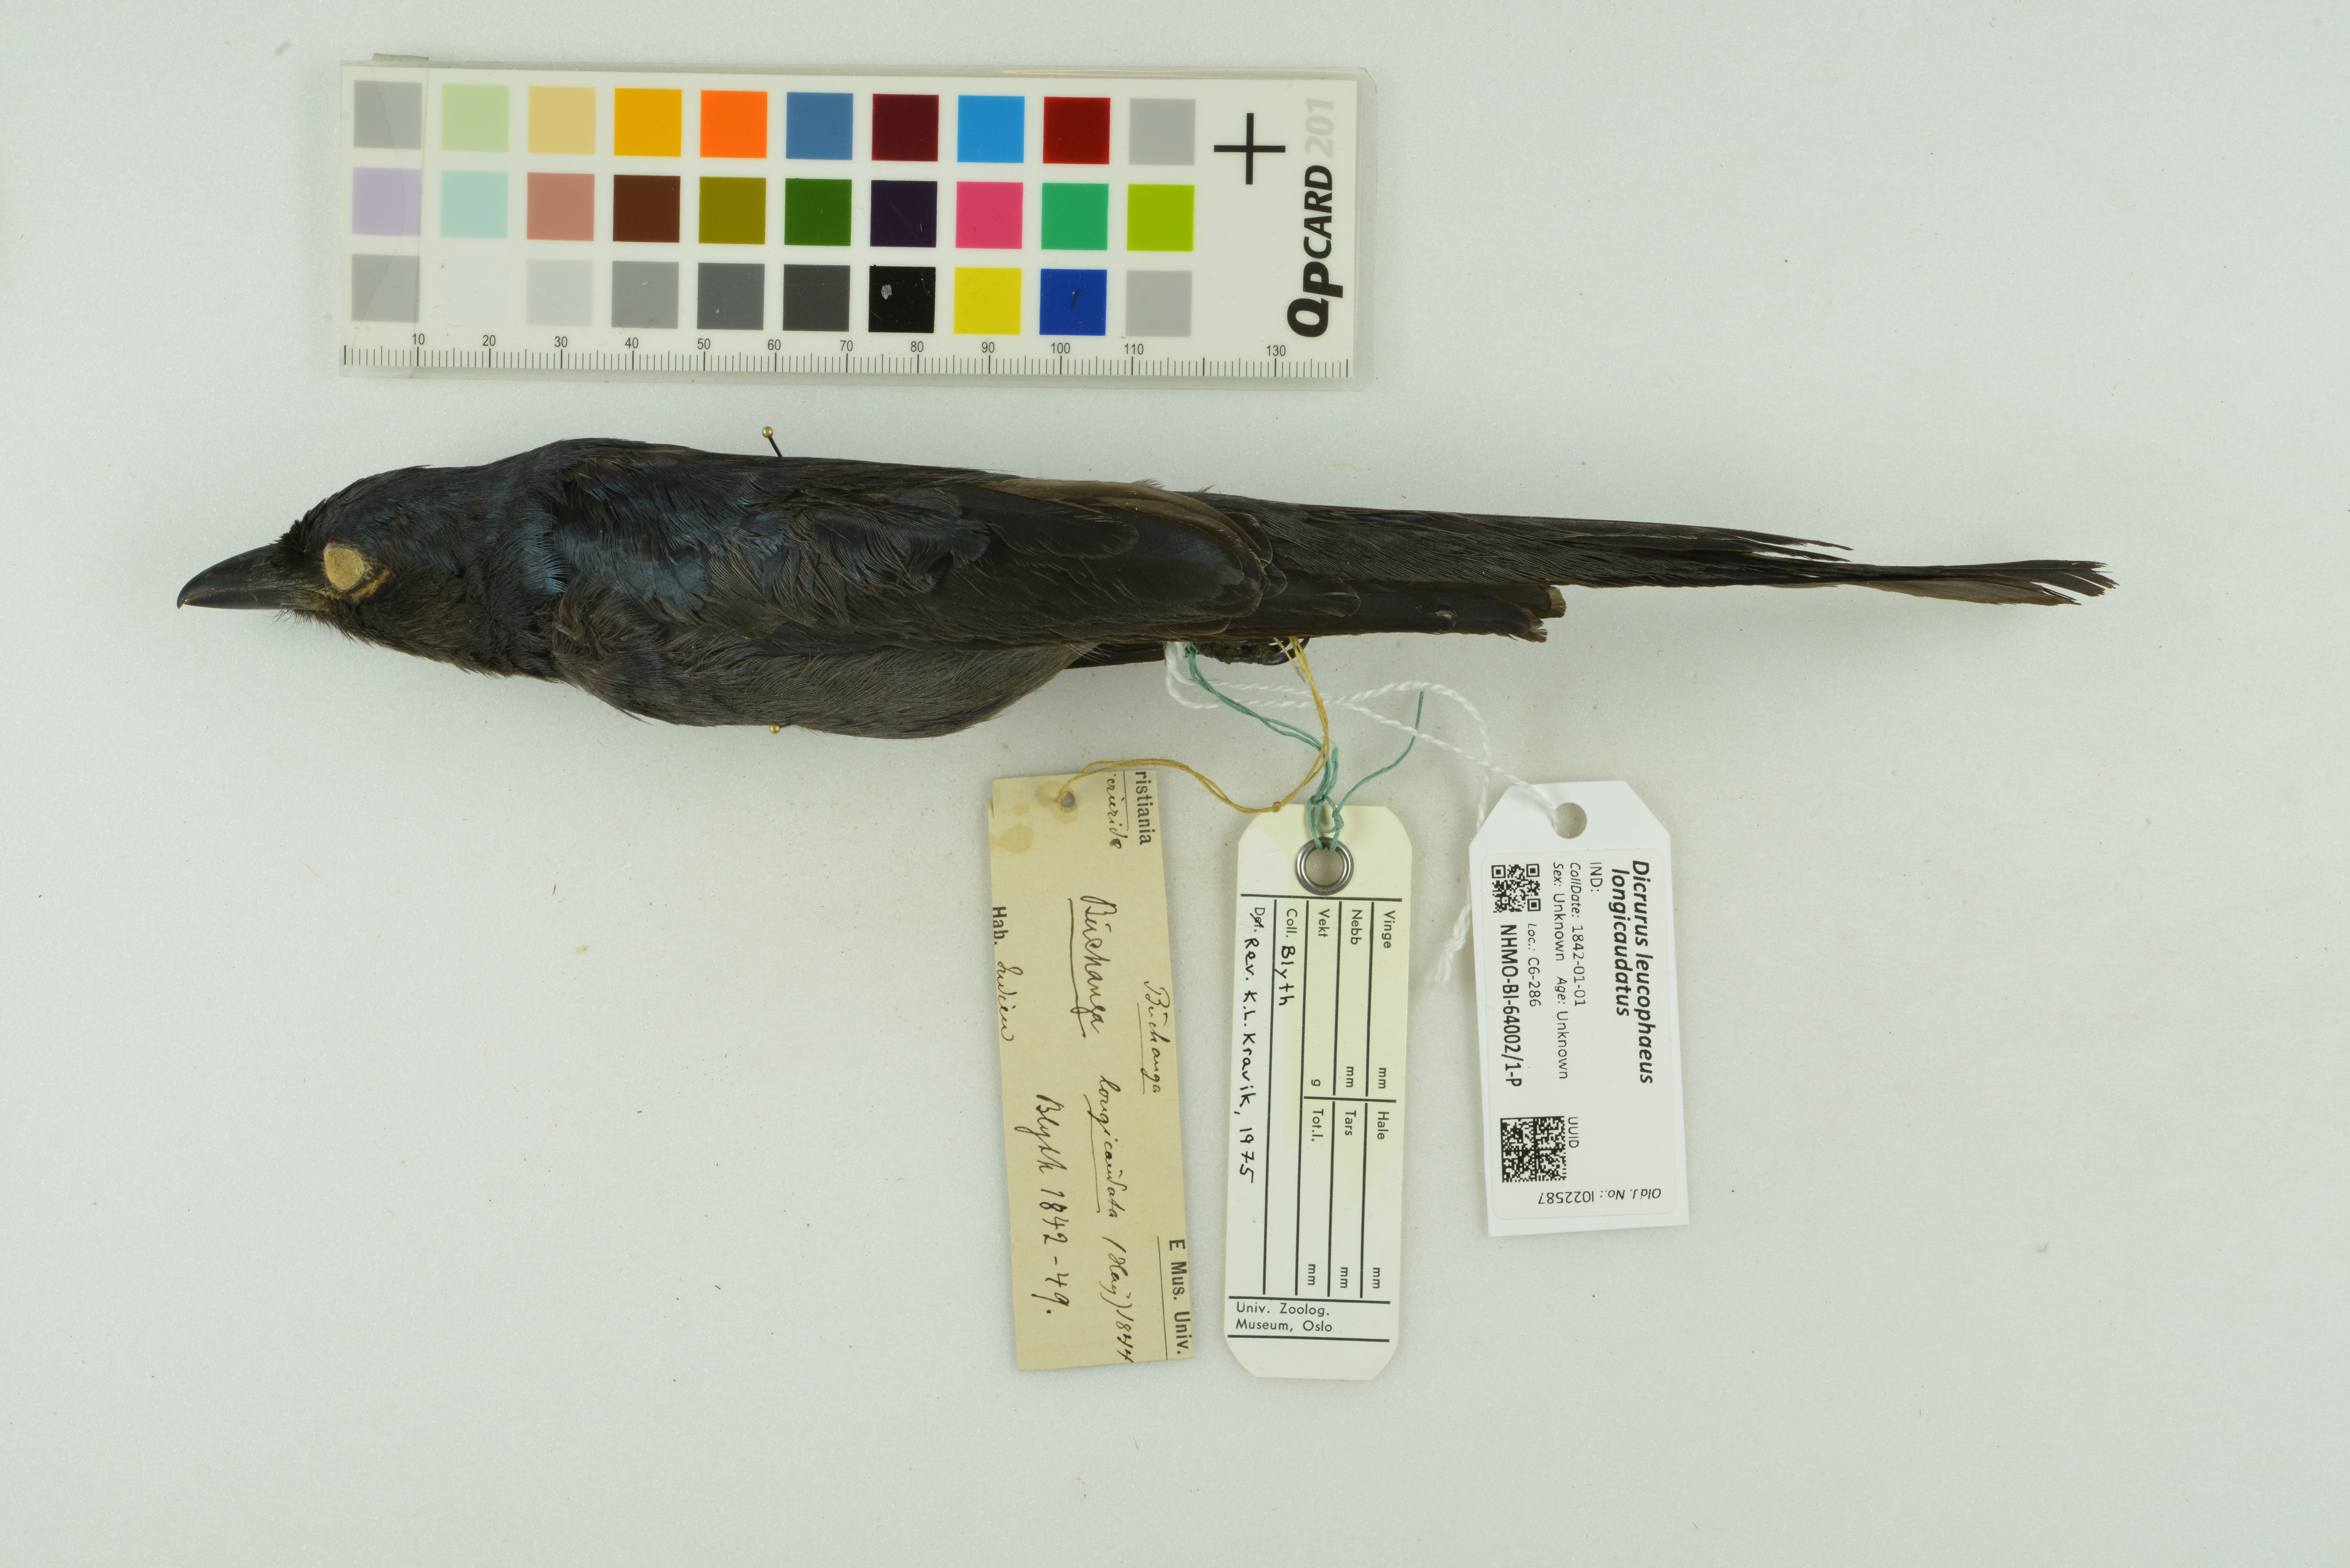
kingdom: Animalia
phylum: Chordata
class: Aves
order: Passeriformes
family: Dicruridae
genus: Dicrurus
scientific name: Dicrurus leucophaeus
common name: Ashy drongo
